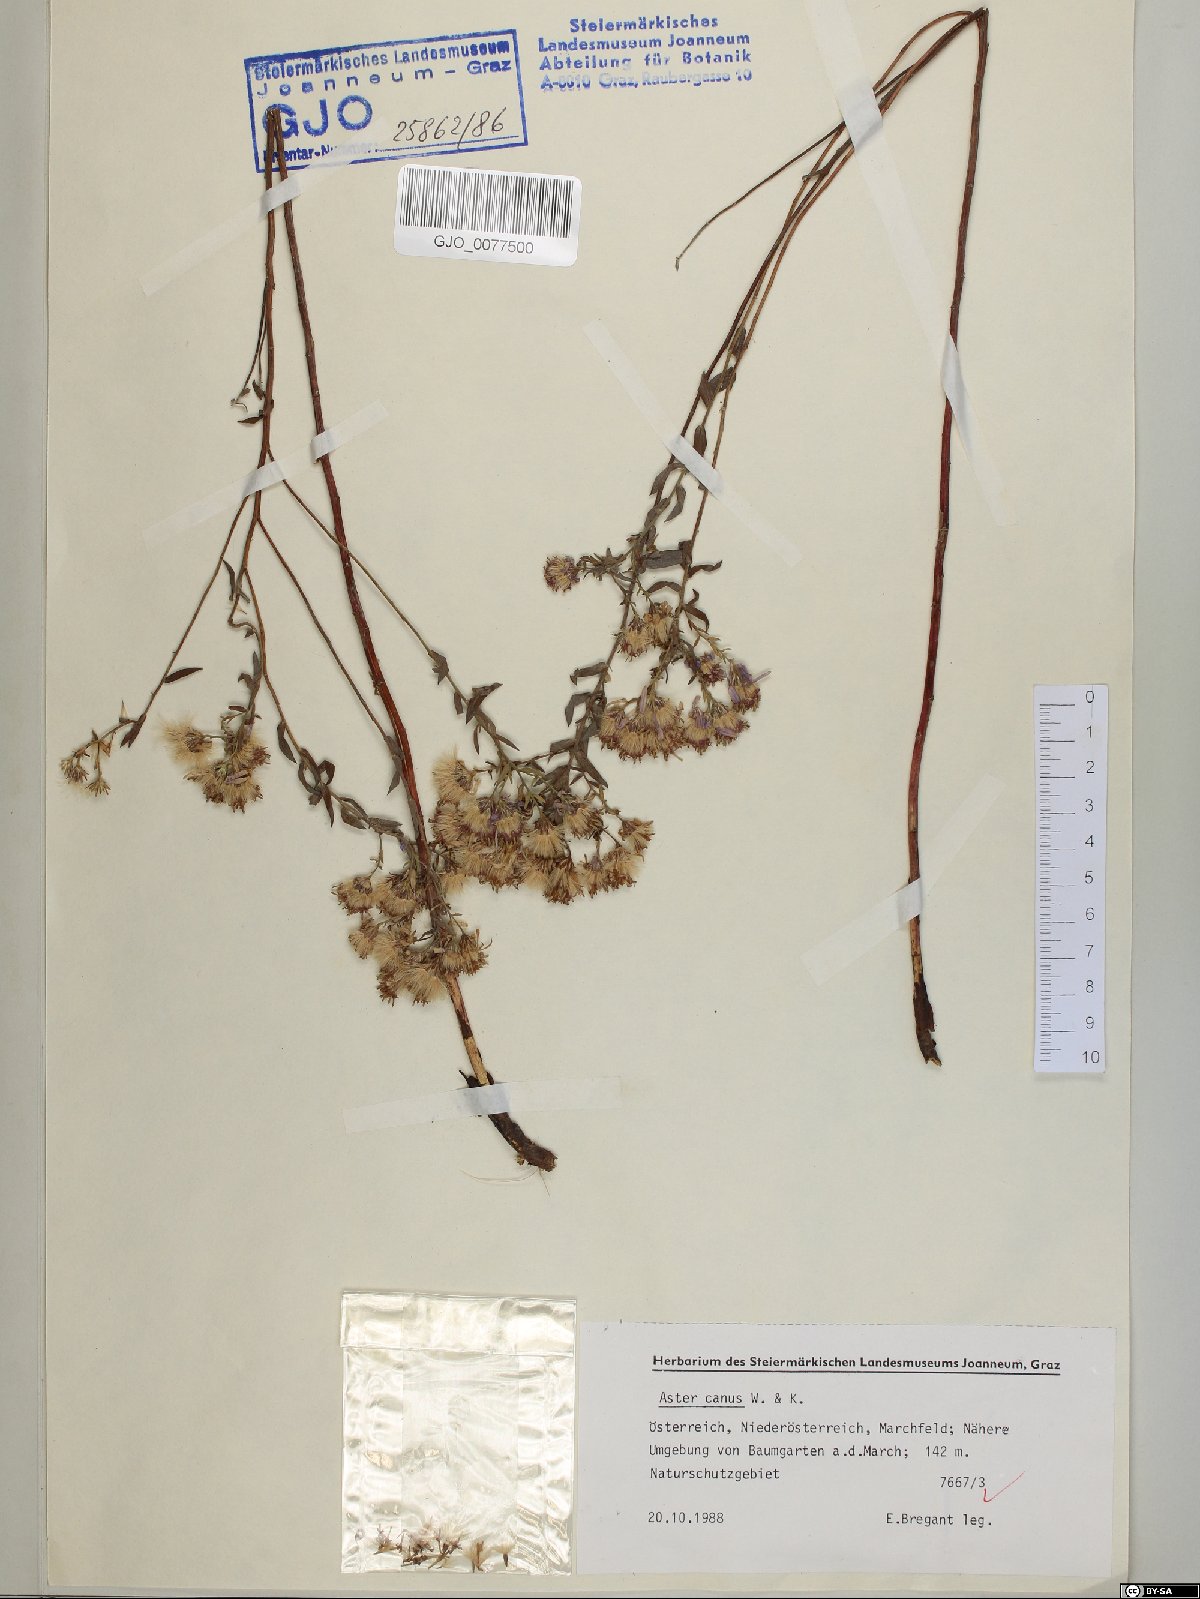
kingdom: Plantae
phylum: Tracheophyta
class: Magnoliopsida
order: Asterales
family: Asteraceae
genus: Galatella
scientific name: Galatella cana
